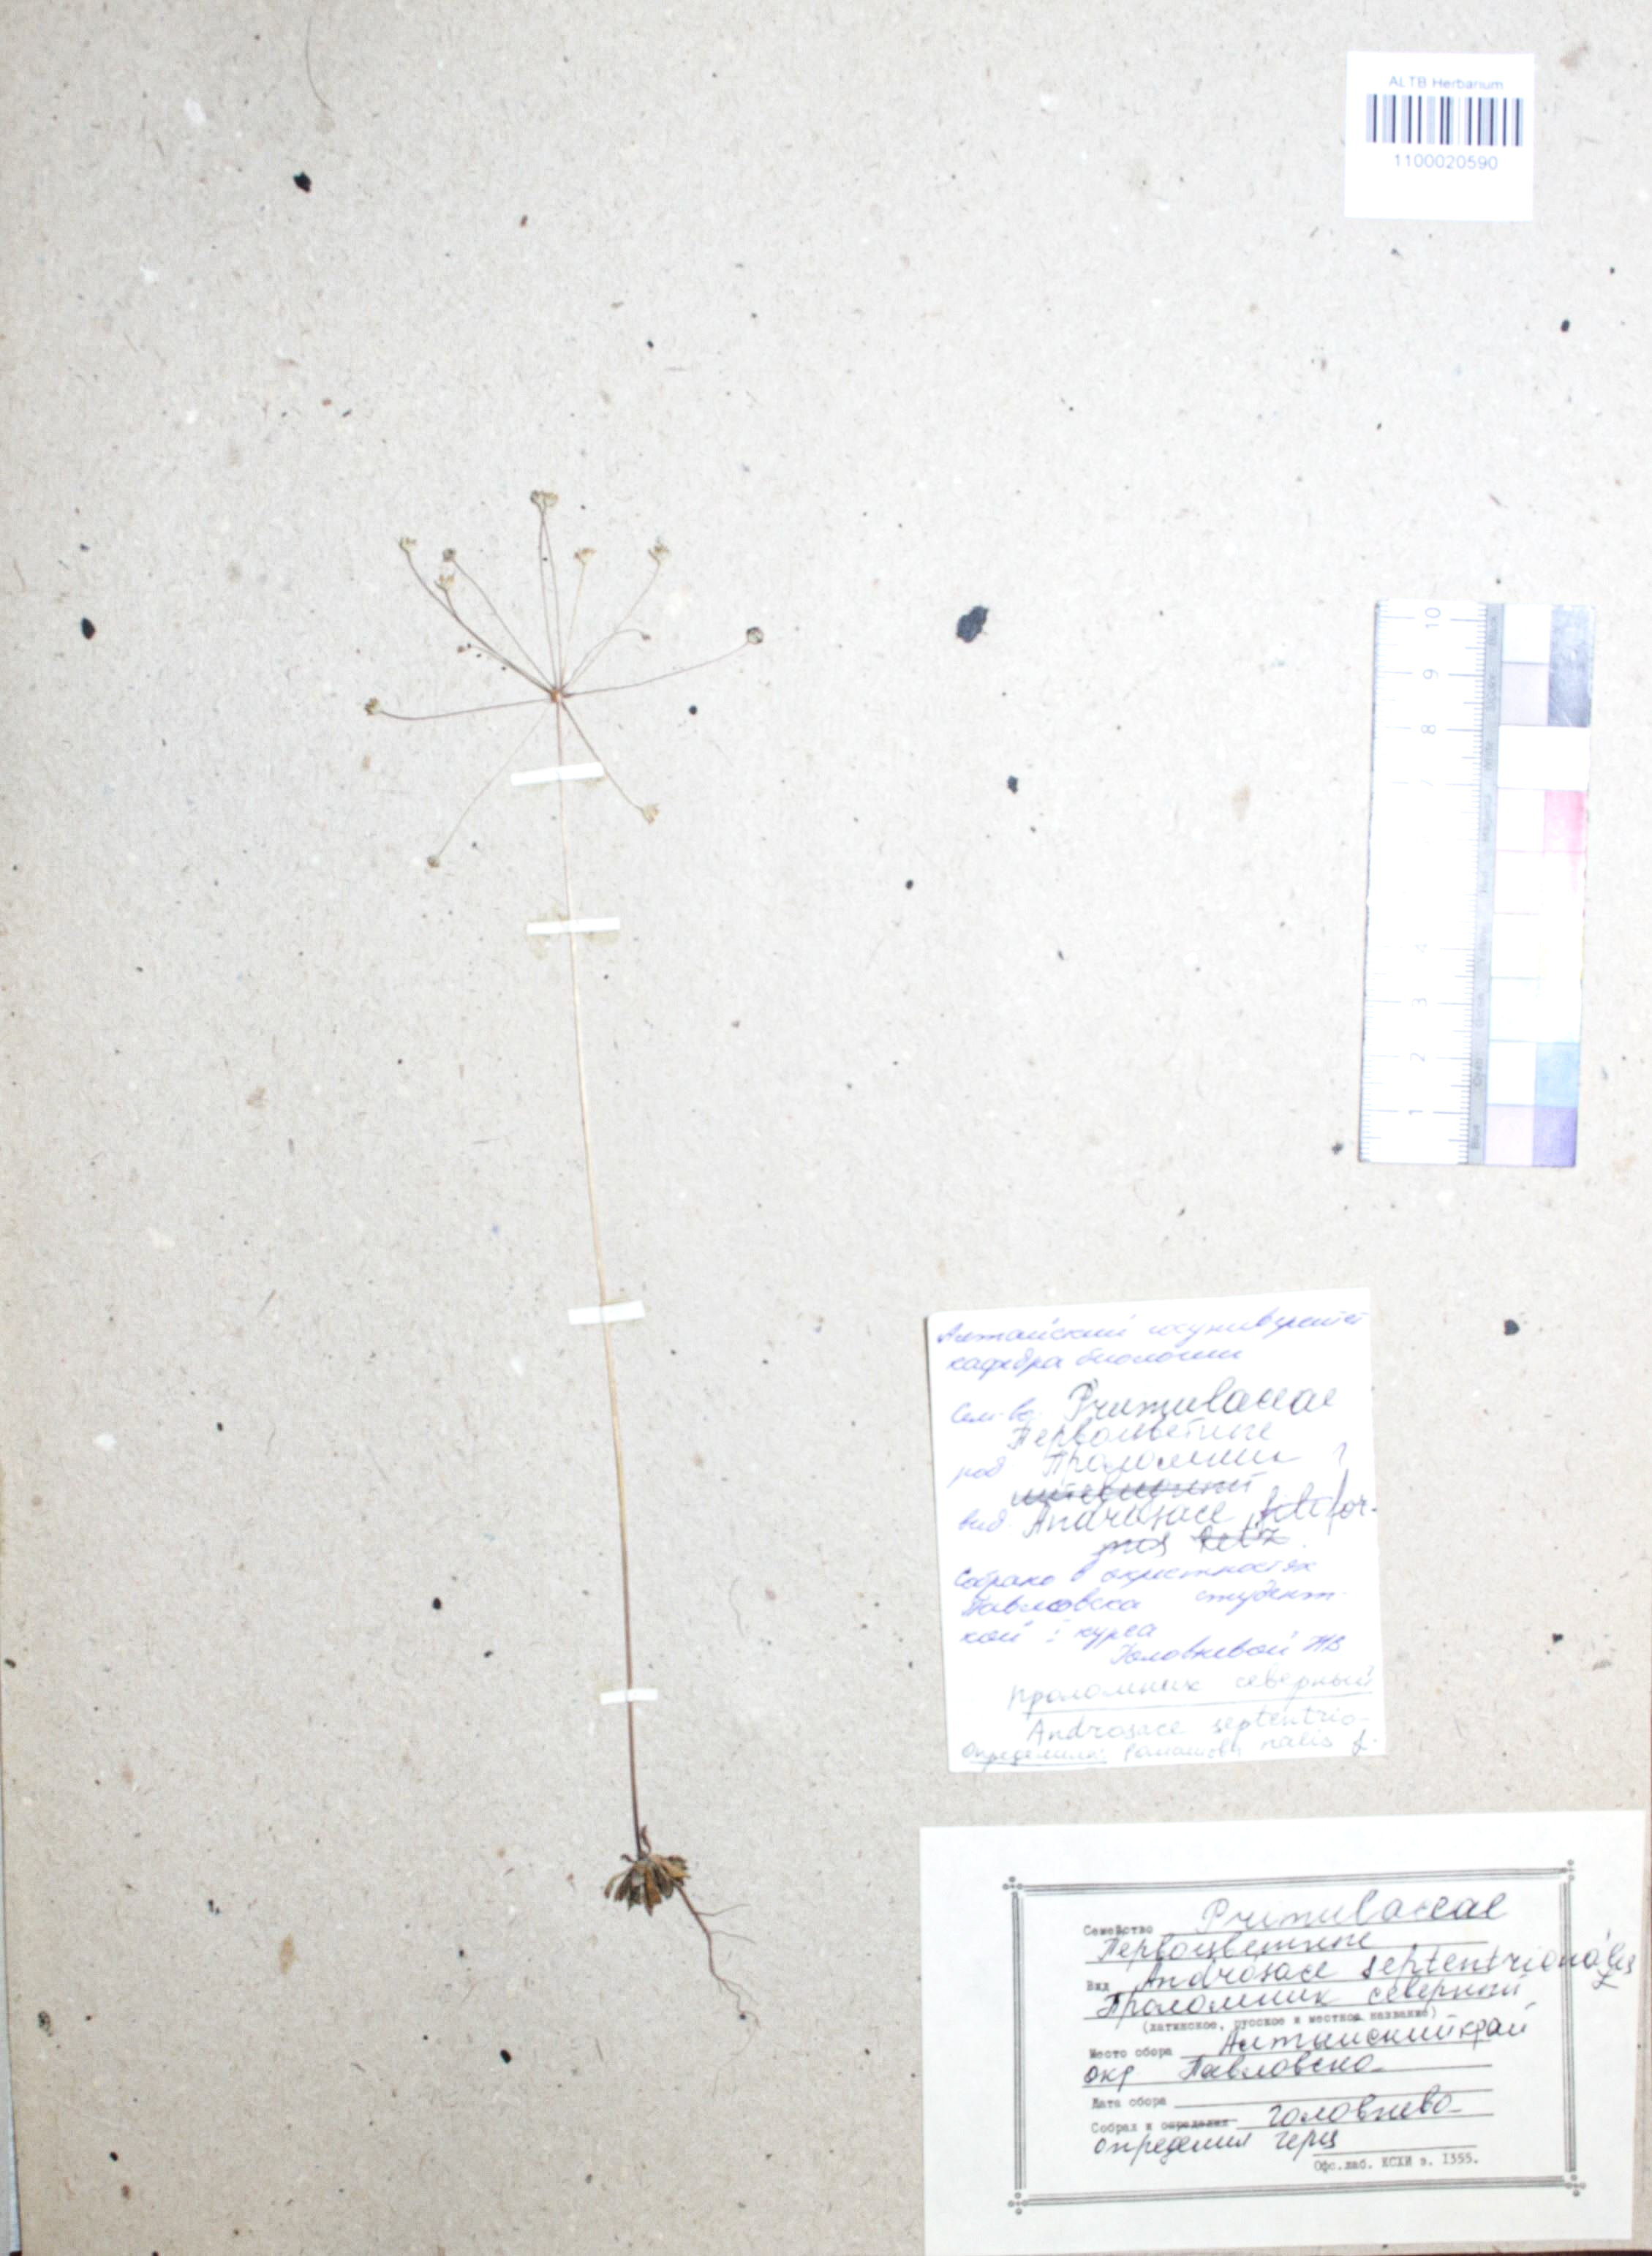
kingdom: Plantae
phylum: Tracheophyta
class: Magnoliopsida
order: Ericales
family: Primulaceae
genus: Androsace
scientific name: Androsace septentrionalis
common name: Hairy northern fairy-candelabra
